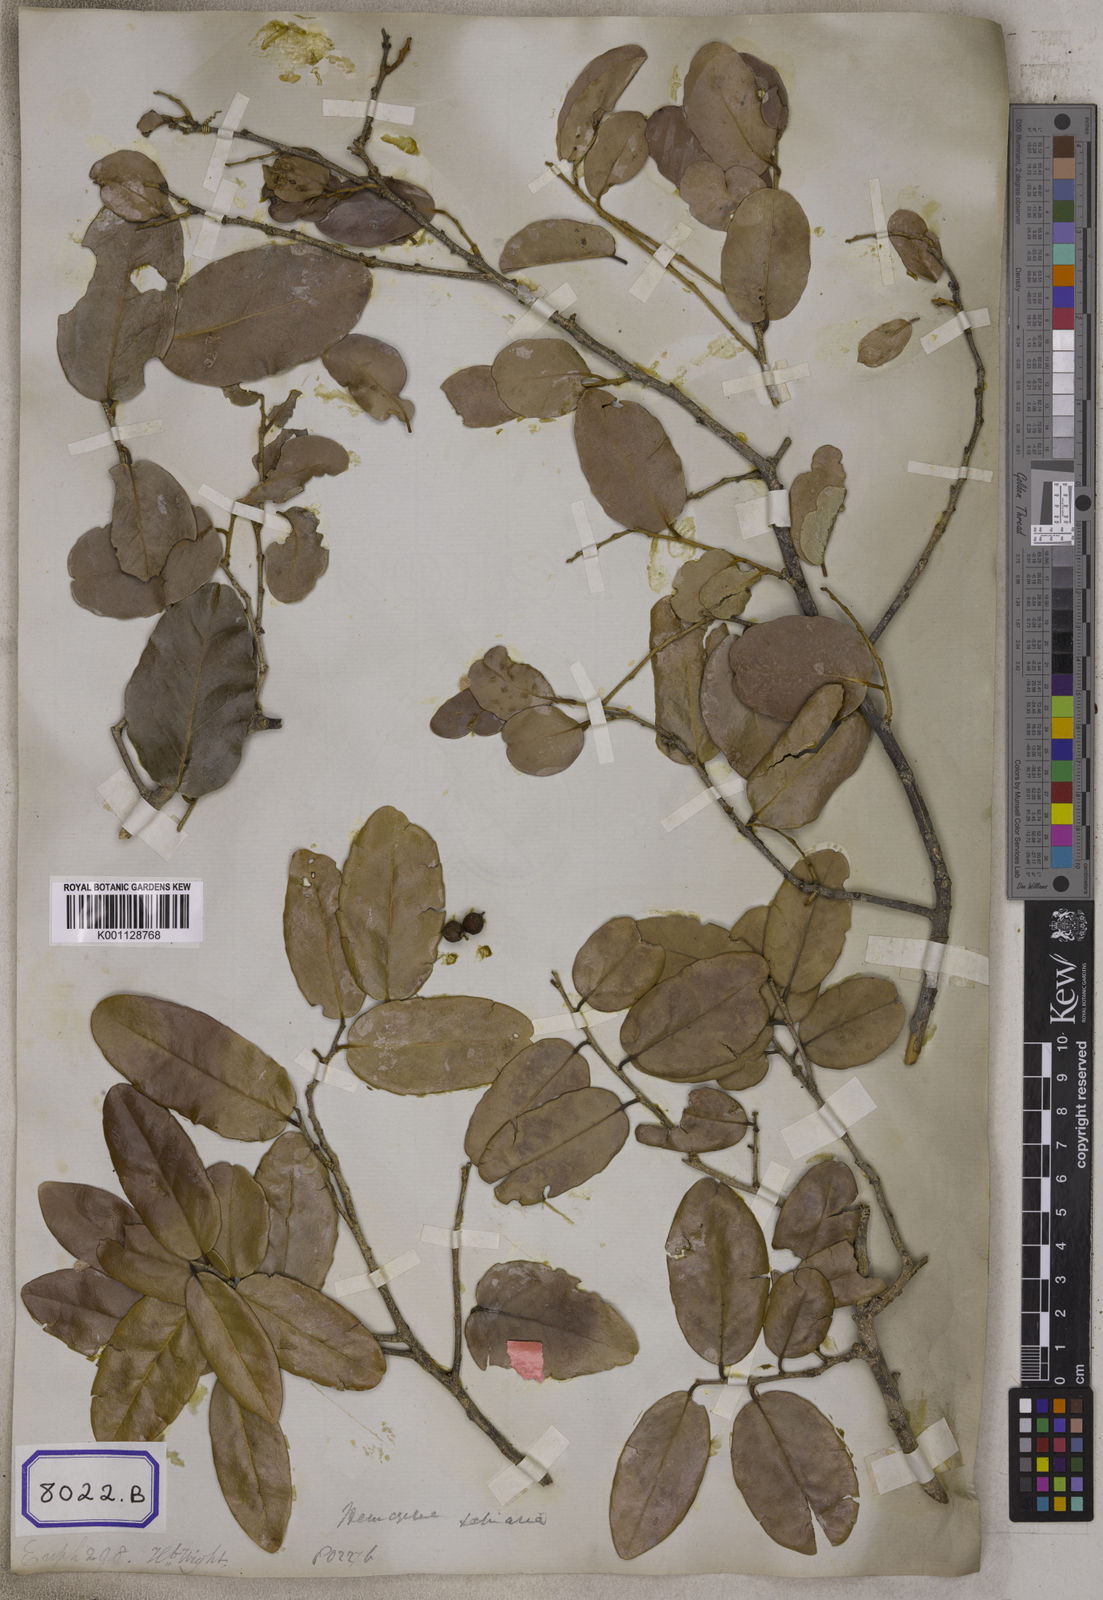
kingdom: Plantae
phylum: Tracheophyta
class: Magnoliopsida
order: Malpighiales
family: Euphorbiaceae
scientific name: Euphorbiaceae
